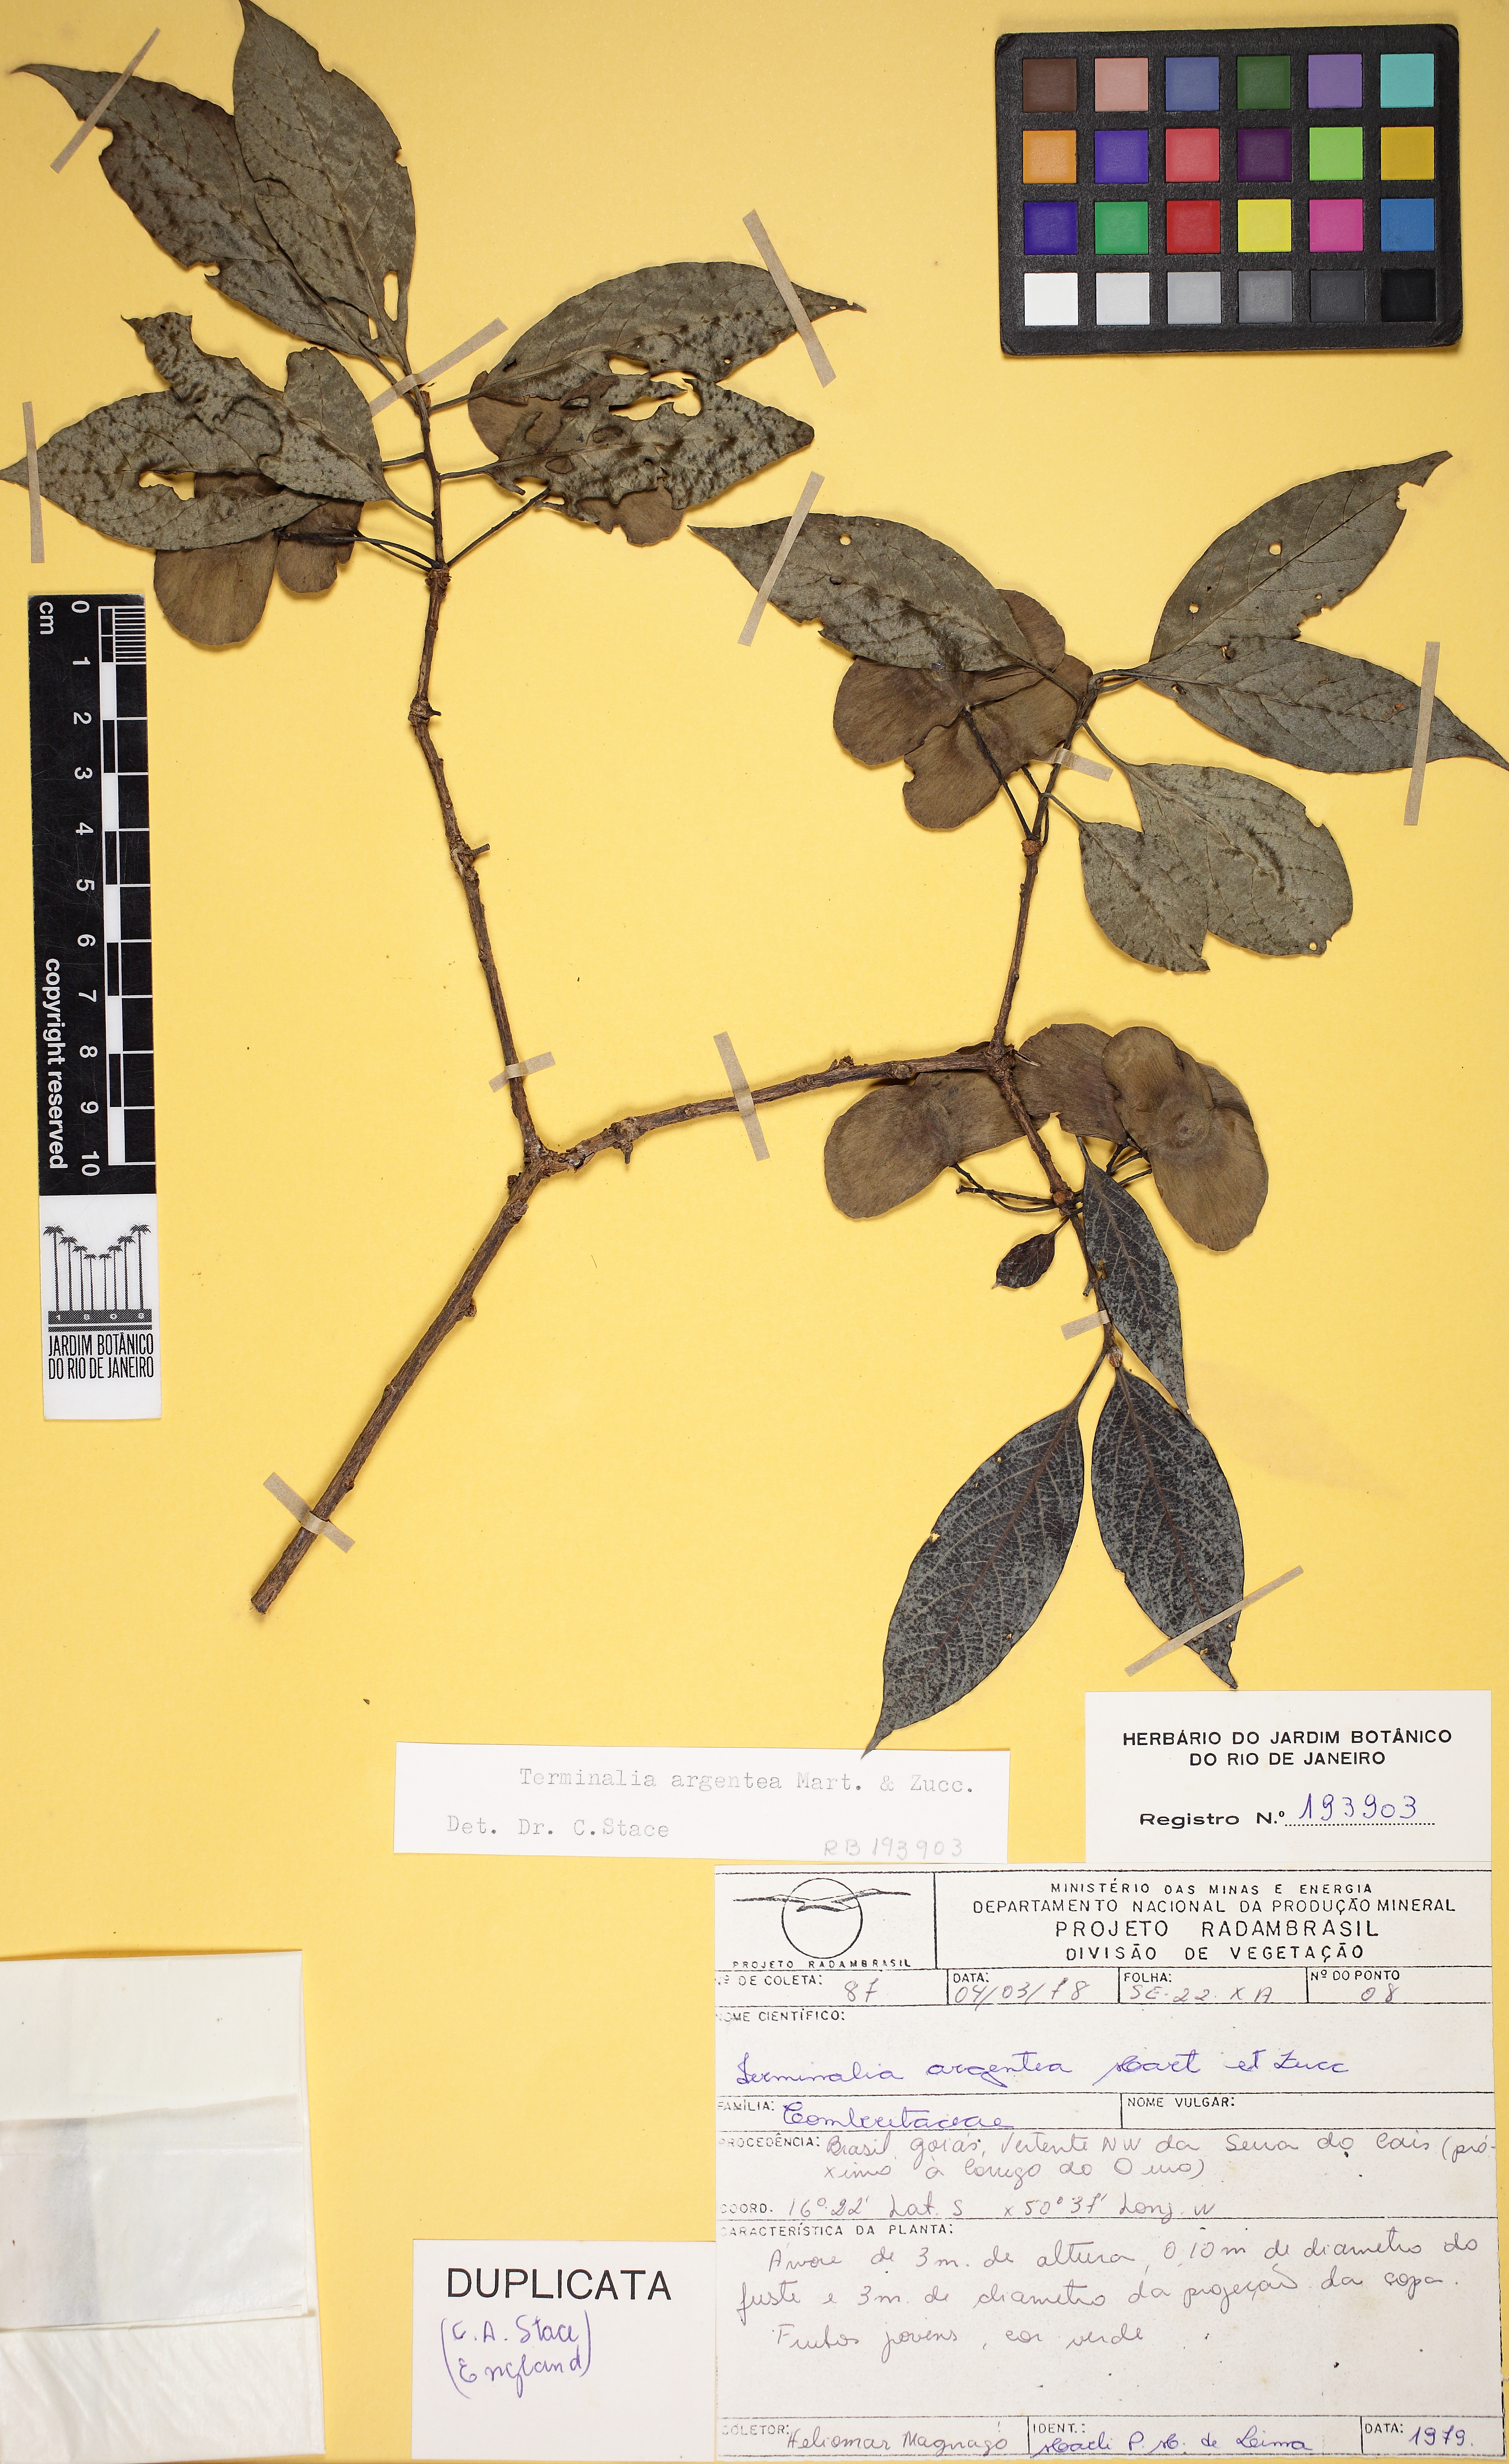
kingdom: Plantae
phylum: Tracheophyta
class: Magnoliopsida
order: Myrtales
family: Combretaceae
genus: Terminalia
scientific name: Terminalia argentea
